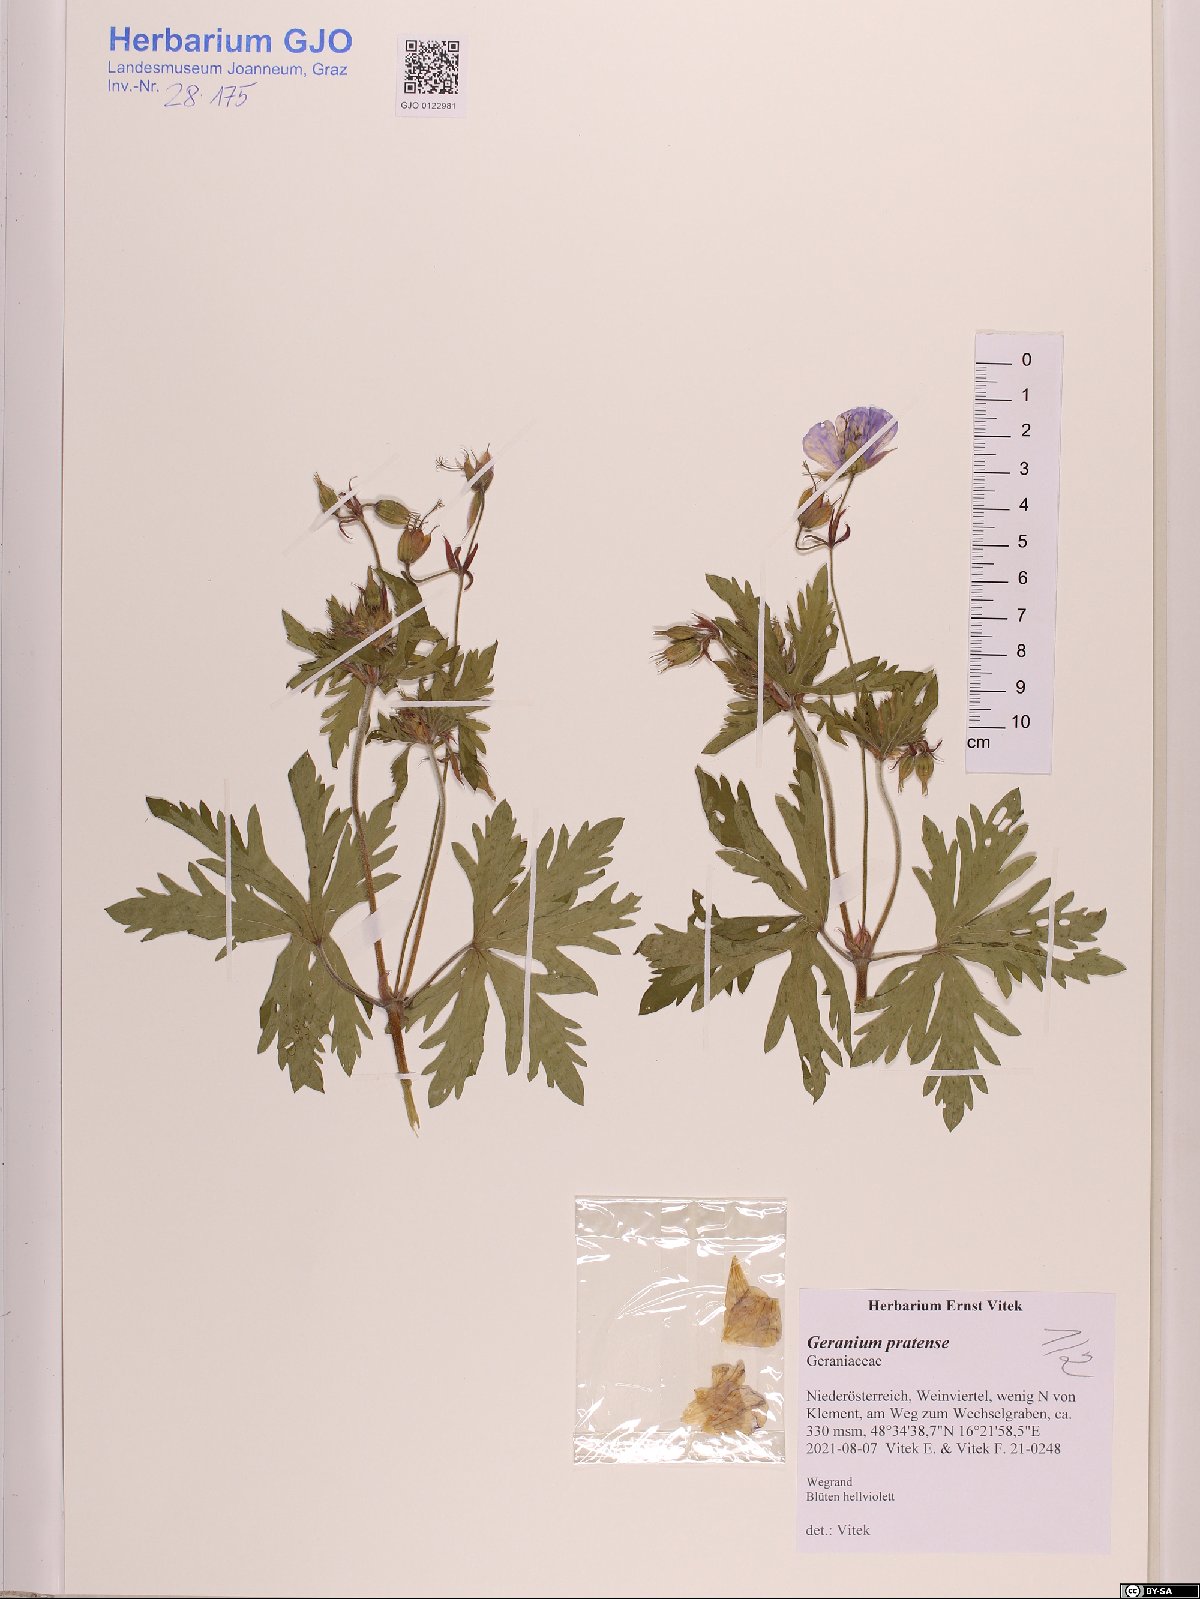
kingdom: Plantae
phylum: Tracheophyta
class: Magnoliopsida
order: Geraniales
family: Geraniaceae
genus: Geranium
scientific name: Geranium pratense
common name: Meadow crane's-bill
